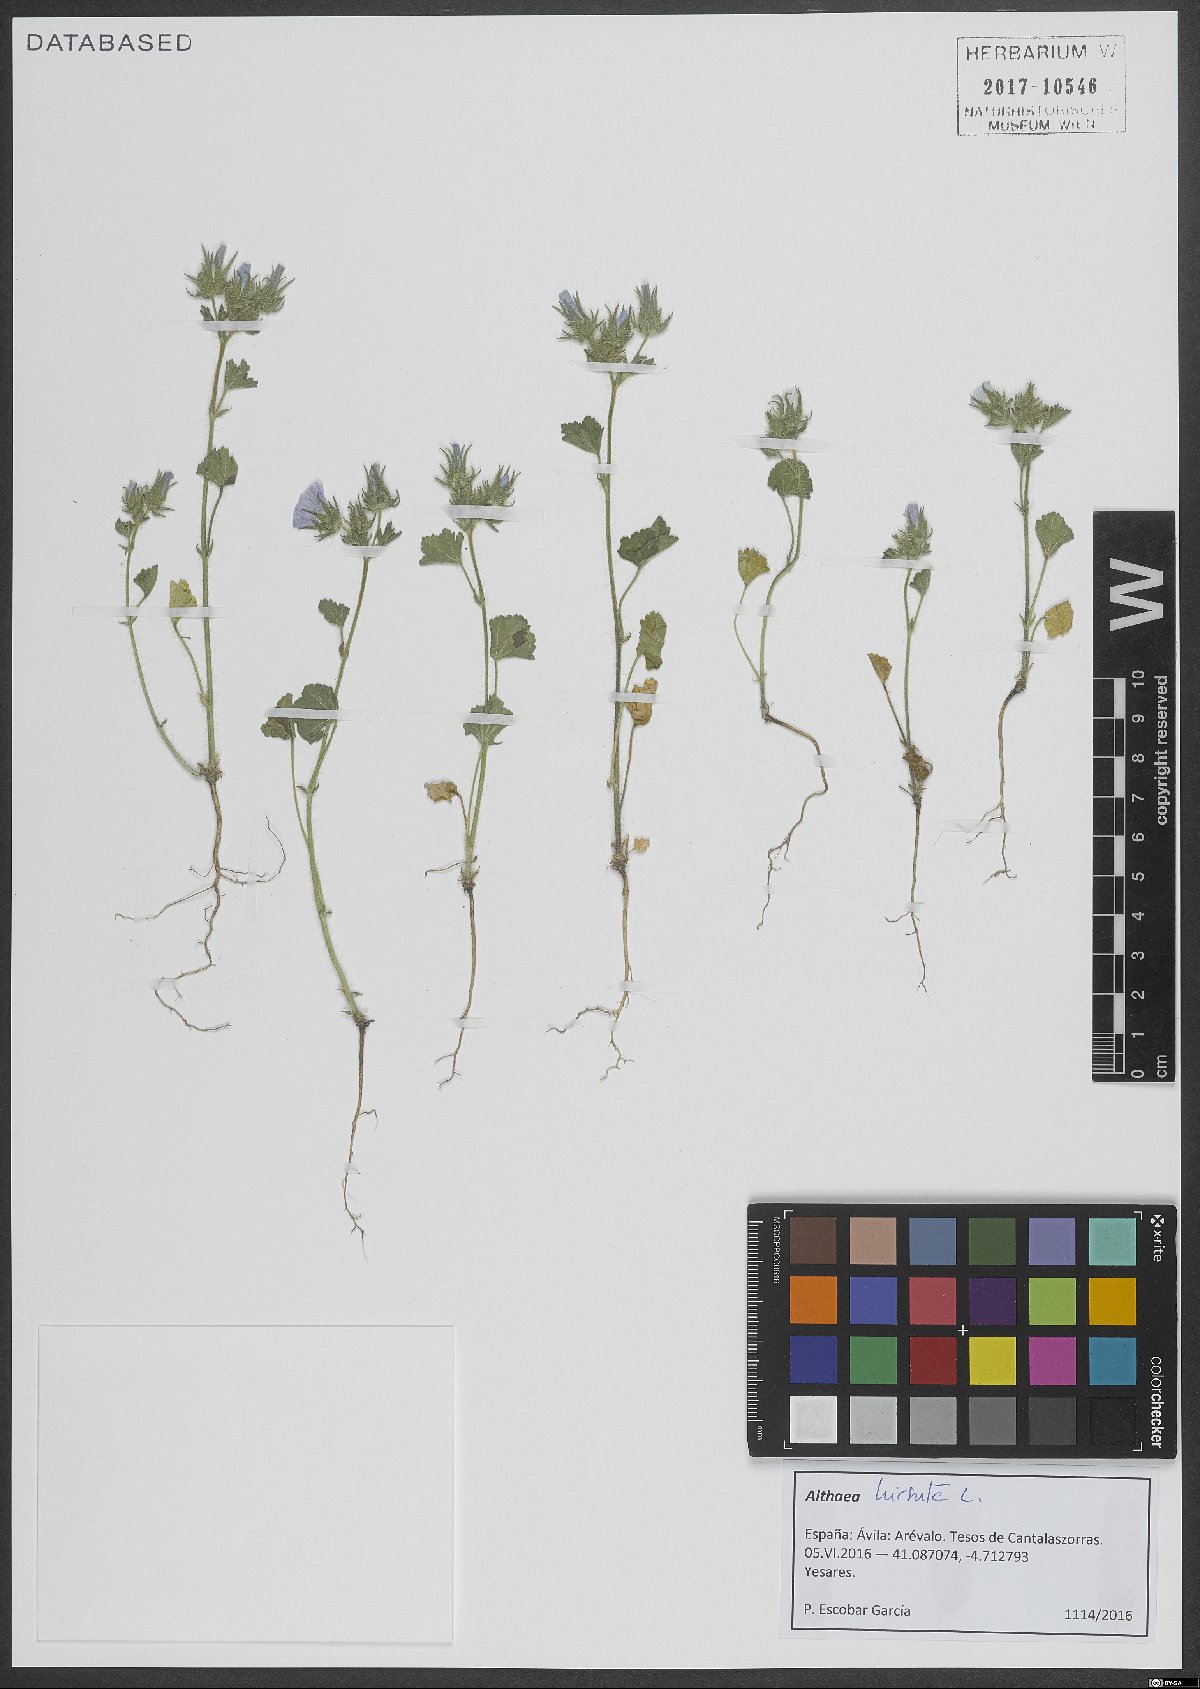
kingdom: Plantae
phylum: Tracheophyta
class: Magnoliopsida
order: Malvales
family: Malvaceae
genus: Althaea
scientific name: Althaea hirsuta
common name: Rough marsh-mallow
